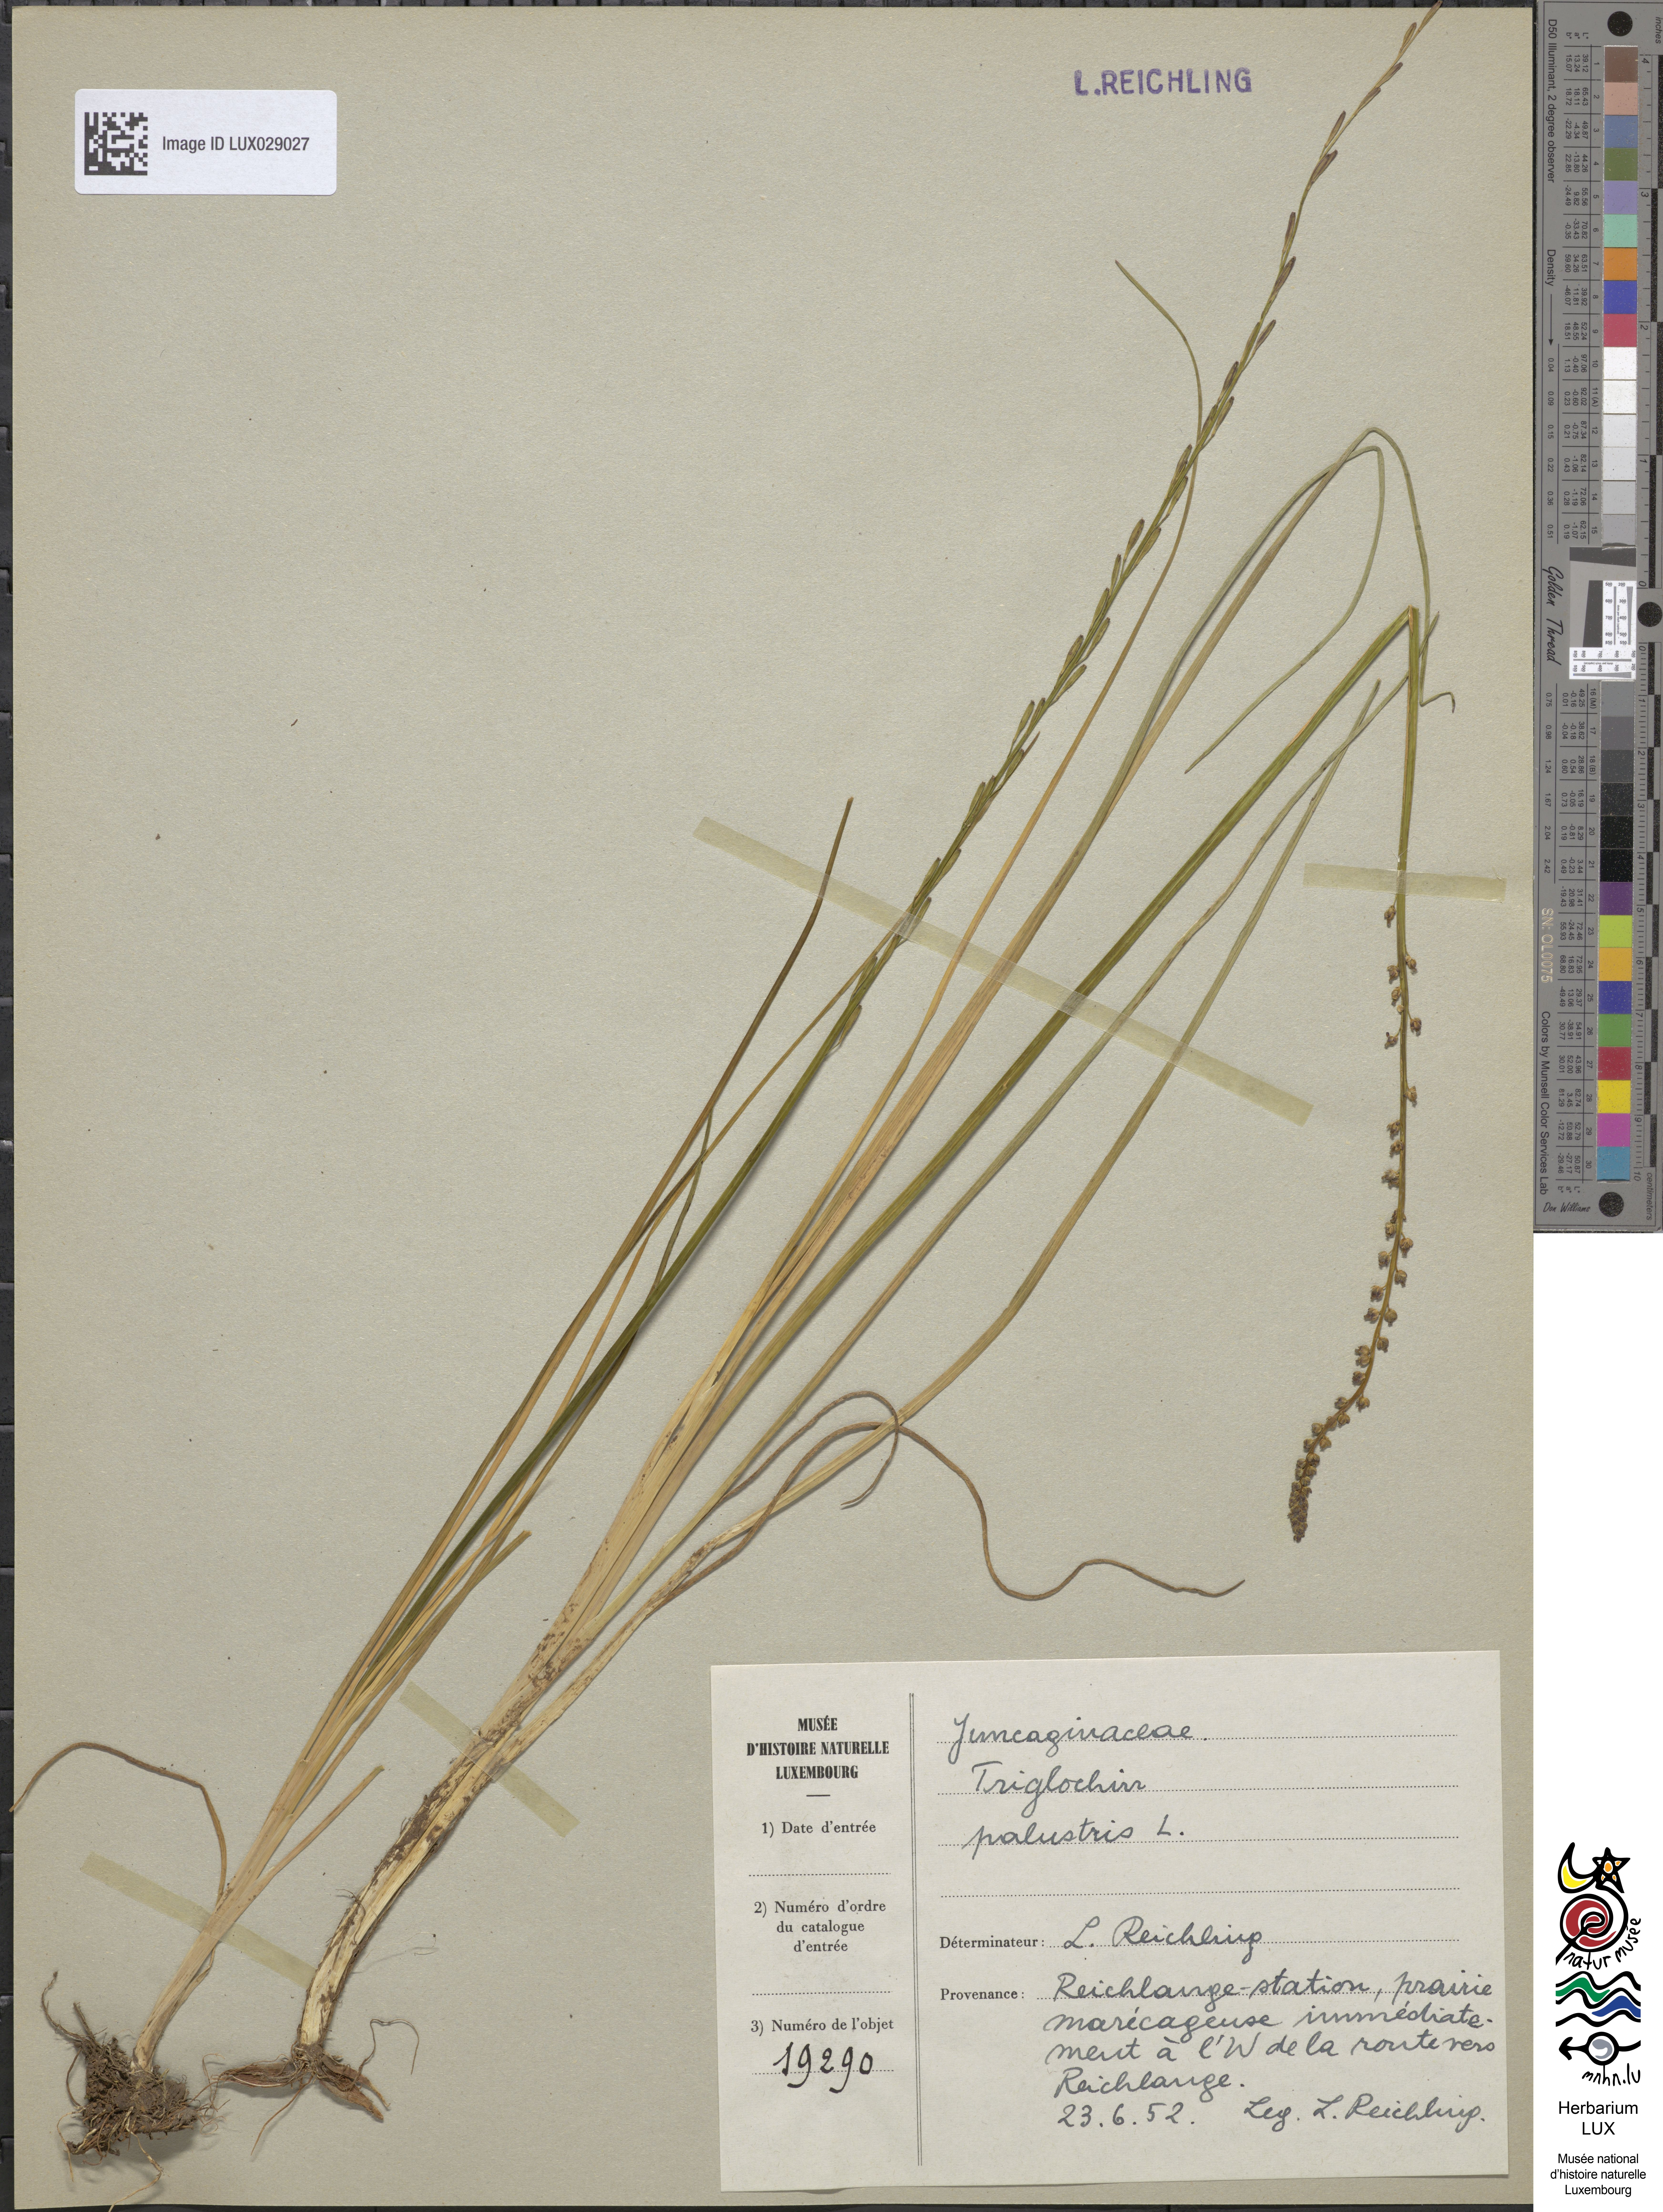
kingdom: Plantae
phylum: Tracheophyta
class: Liliopsida
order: Alismatales
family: Juncaginaceae
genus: Triglochin
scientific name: Triglochin palustris
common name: Marsh arrowgrass
